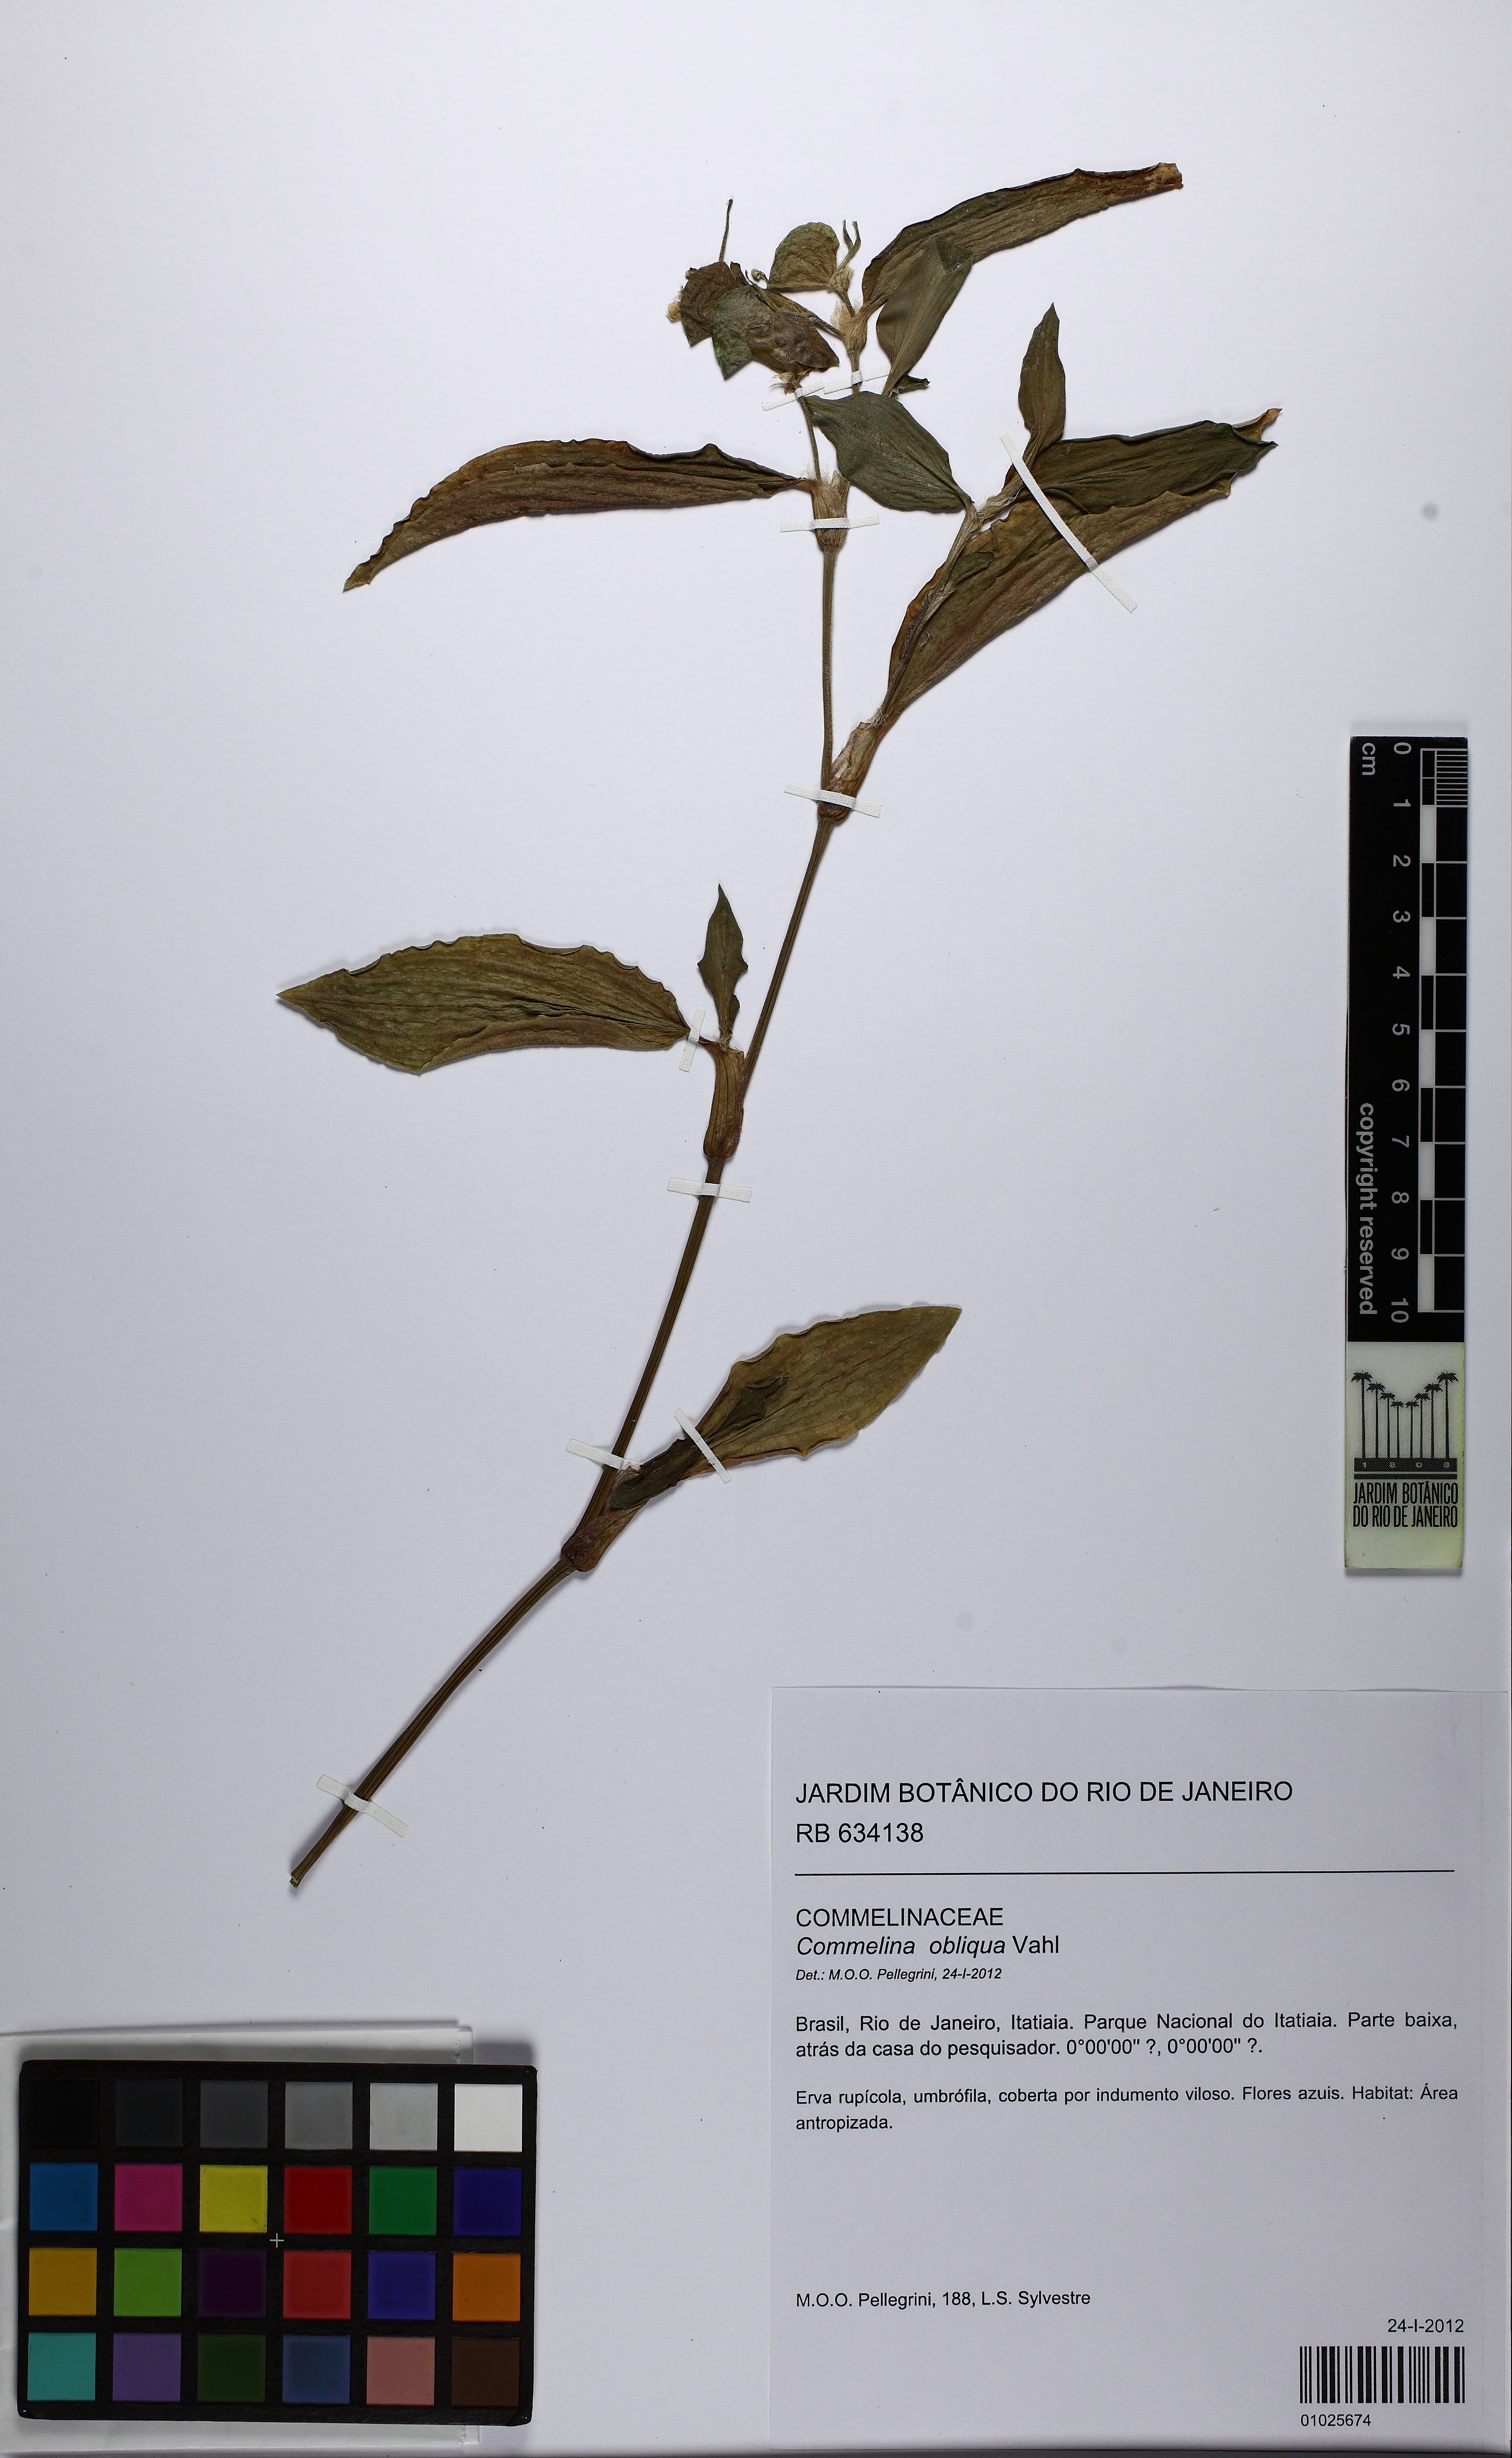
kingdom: Plantae
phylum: Tracheophyta
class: Liliopsida
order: Commelinales
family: Commelinaceae
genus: Commelina
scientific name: Commelina obliqua
